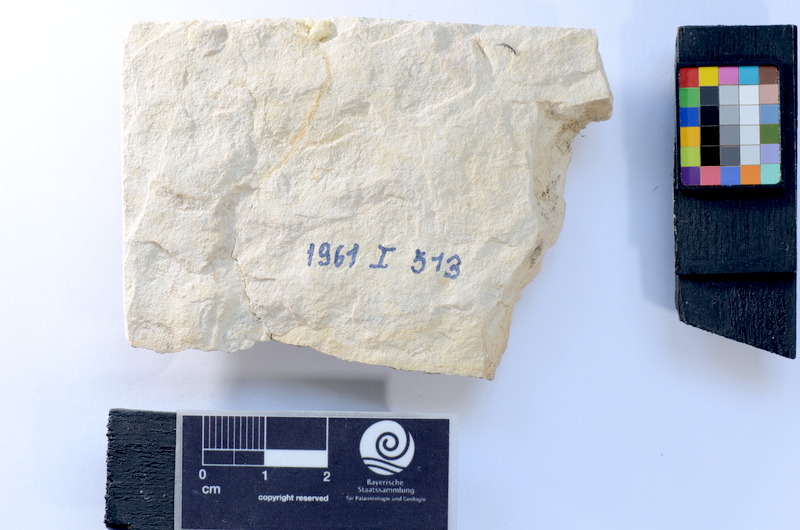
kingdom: Animalia
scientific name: Animalia
